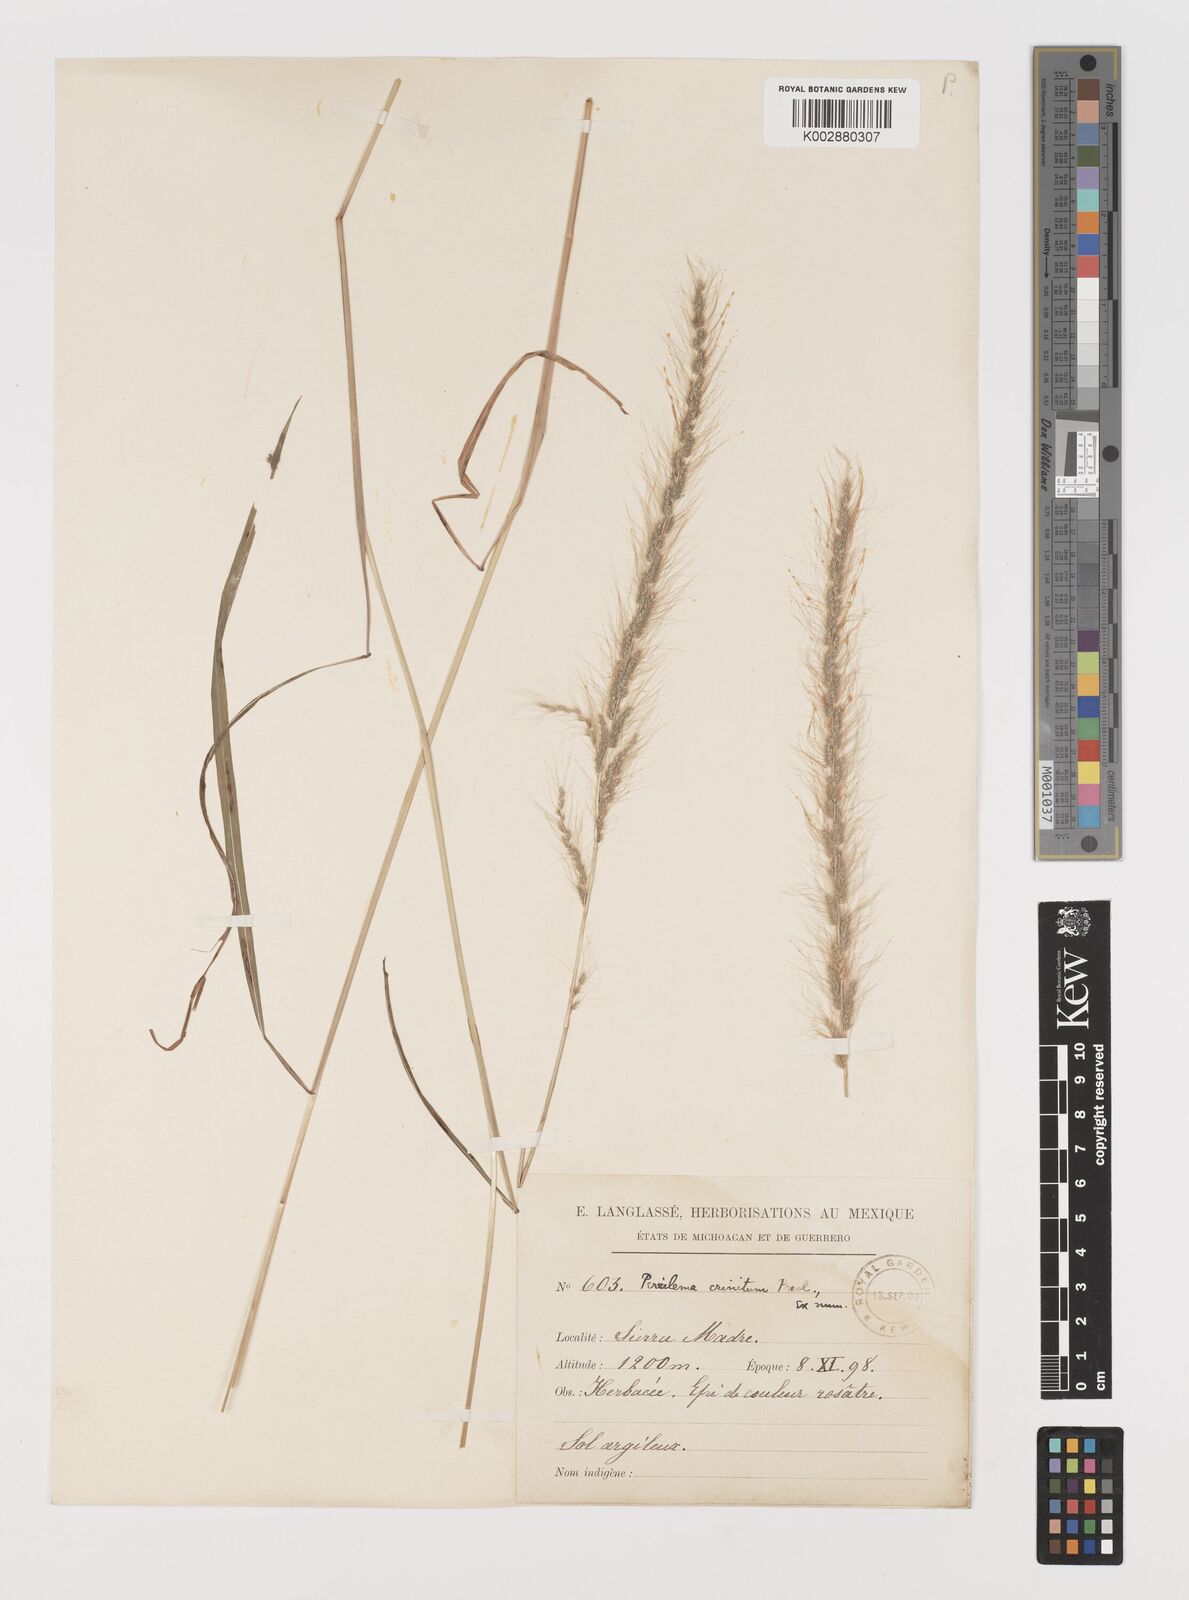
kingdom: Plantae
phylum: Tracheophyta
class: Liliopsida
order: Poales
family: Poaceae
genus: Muhlenbergia
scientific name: Muhlenbergia pereilema
